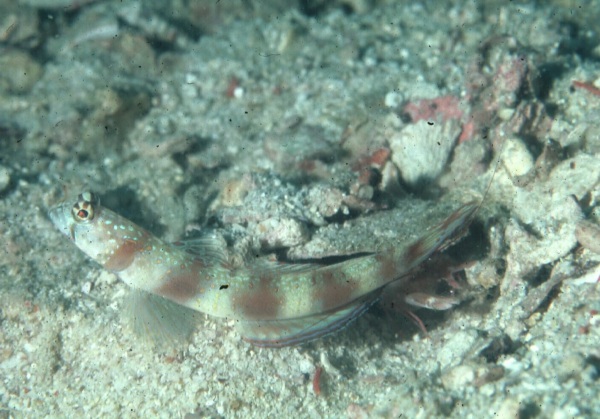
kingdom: Animalia
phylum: Chordata
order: Perciformes
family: Gobiidae
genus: Amblyeleotris
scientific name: Amblyeleotris
